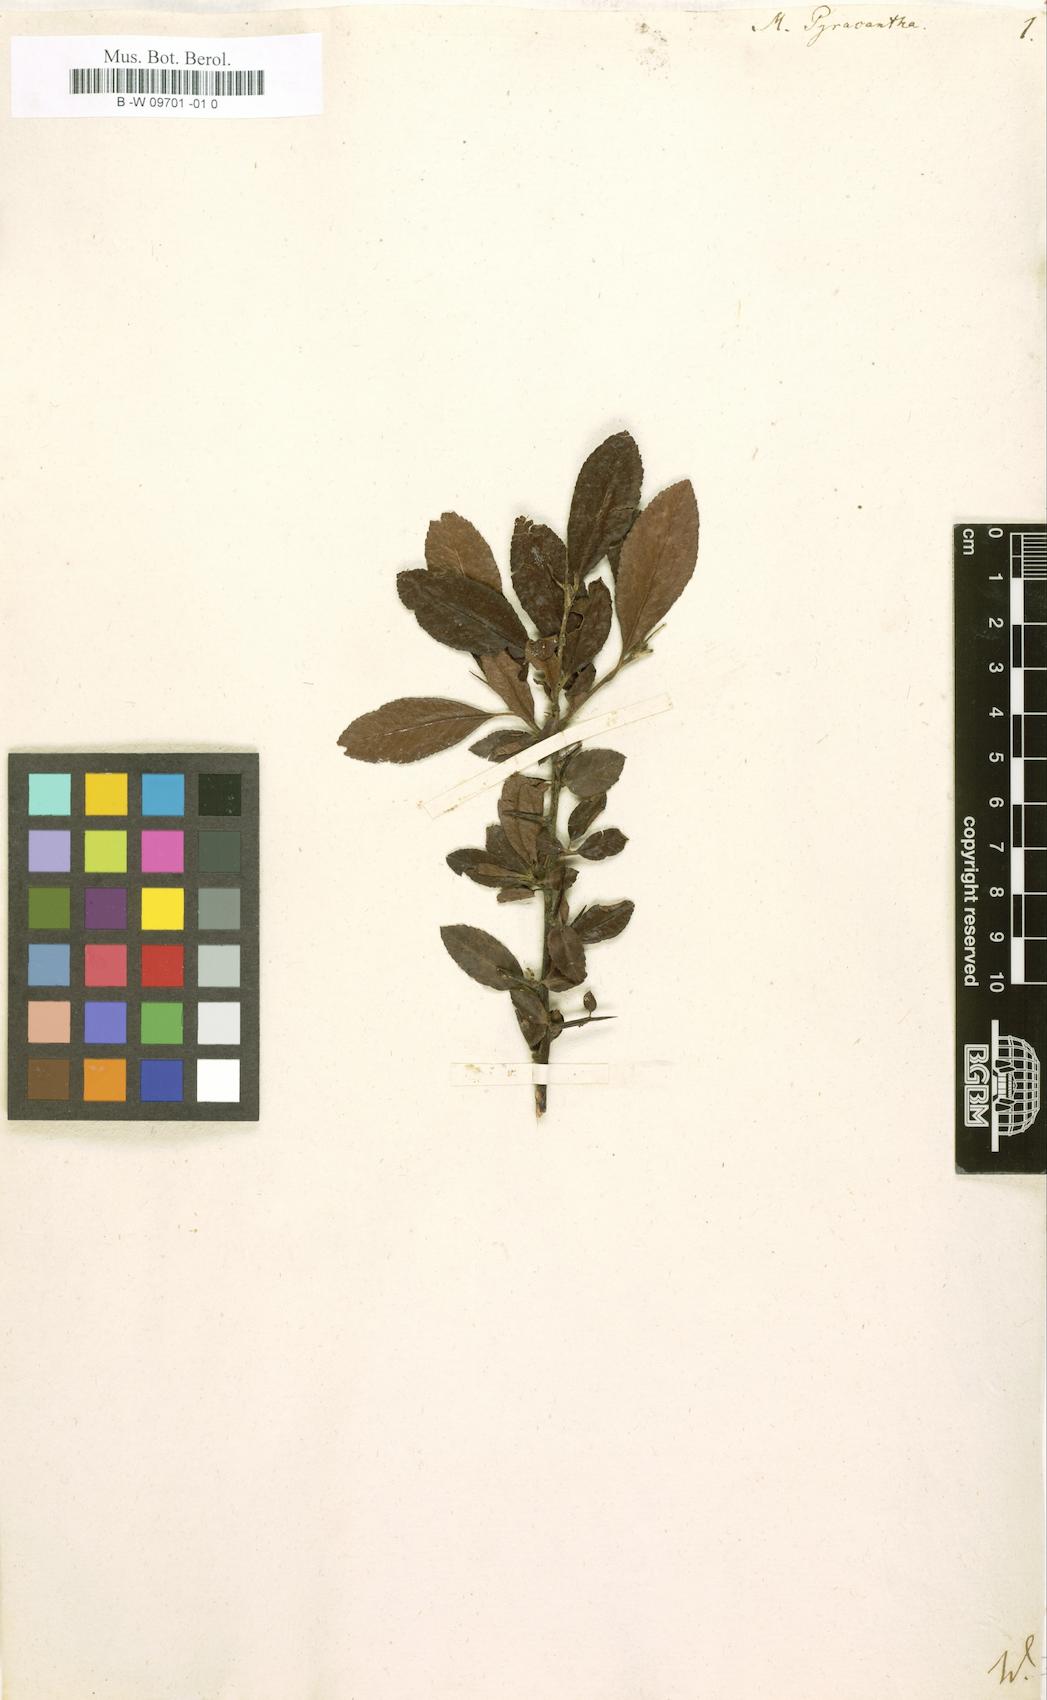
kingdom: Plantae
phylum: Tracheophyta
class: Magnoliopsida
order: Rosales
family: Rosaceae
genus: Pyracantha
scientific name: Pyracantha
